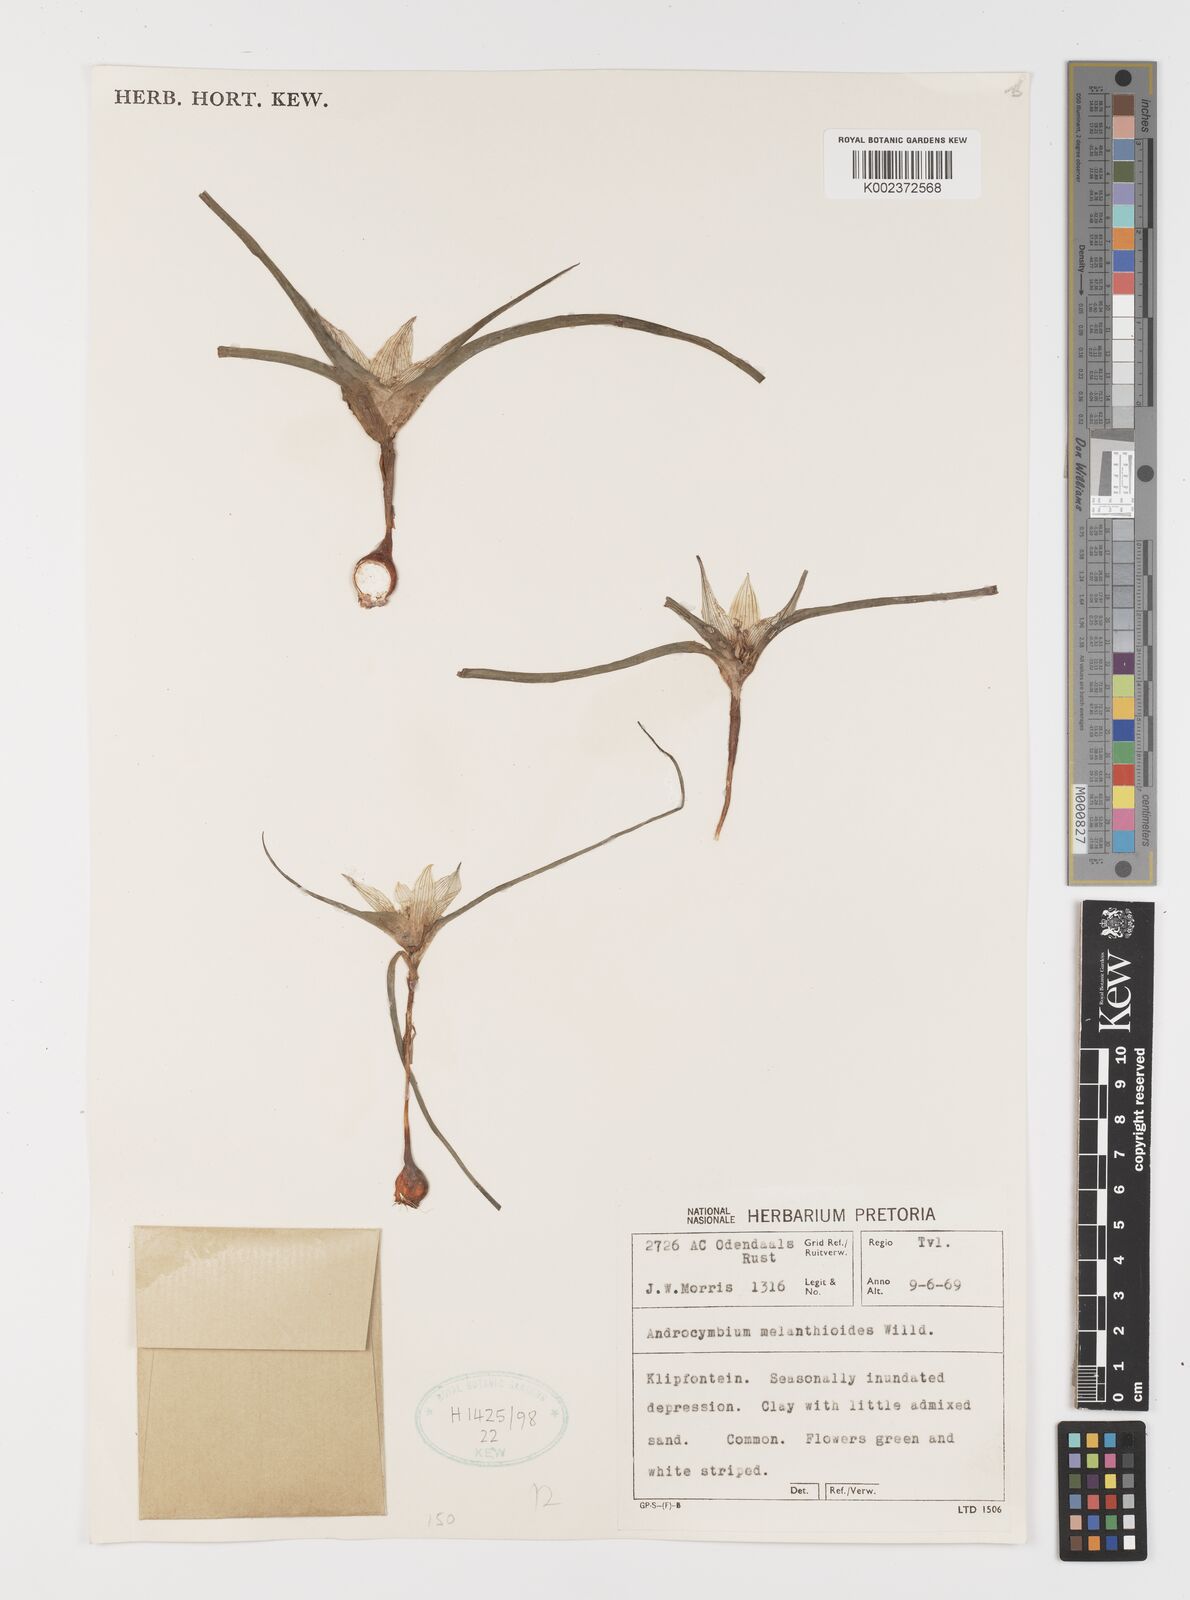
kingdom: Plantae
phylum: Tracheophyta
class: Liliopsida
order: Liliales
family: Colchicaceae
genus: Colchicum
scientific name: Colchicum melanthioides
